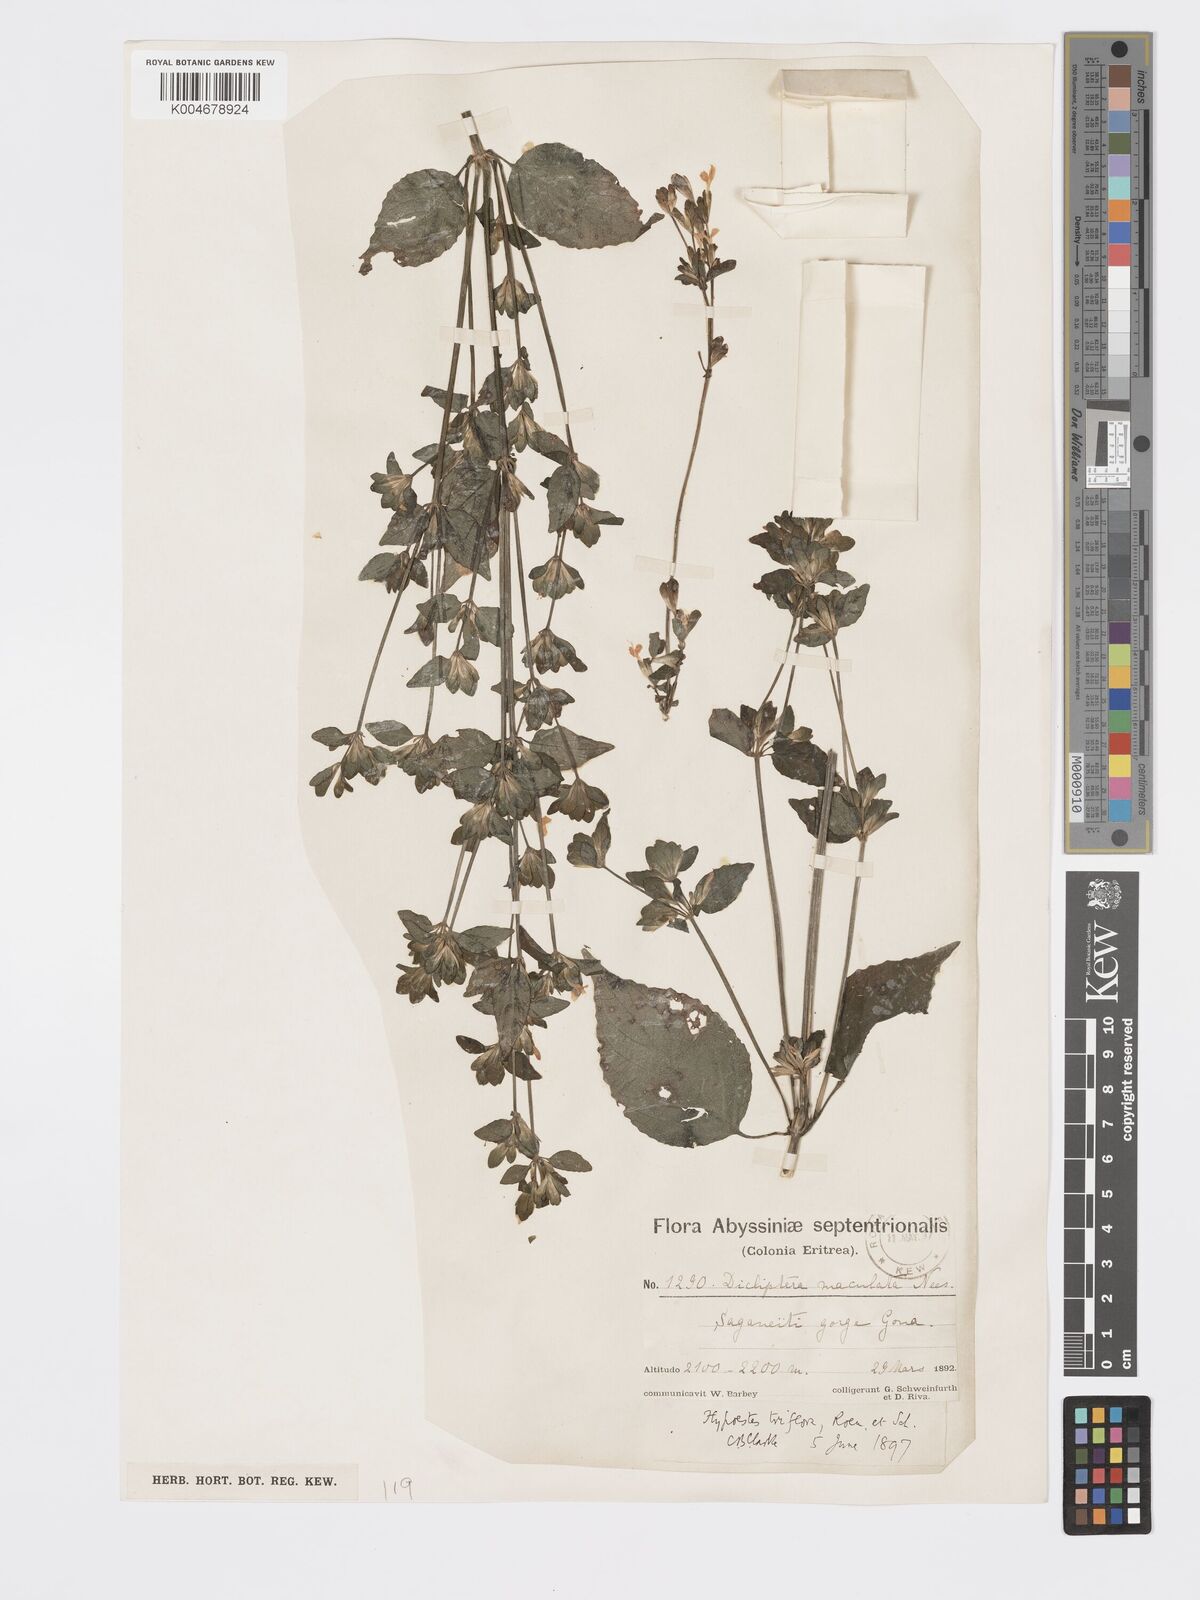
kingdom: Plantae
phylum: Tracheophyta
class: Magnoliopsida
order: Lamiales
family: Acanthaceae
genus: Hypoestes
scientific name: Hypoestes triflora
